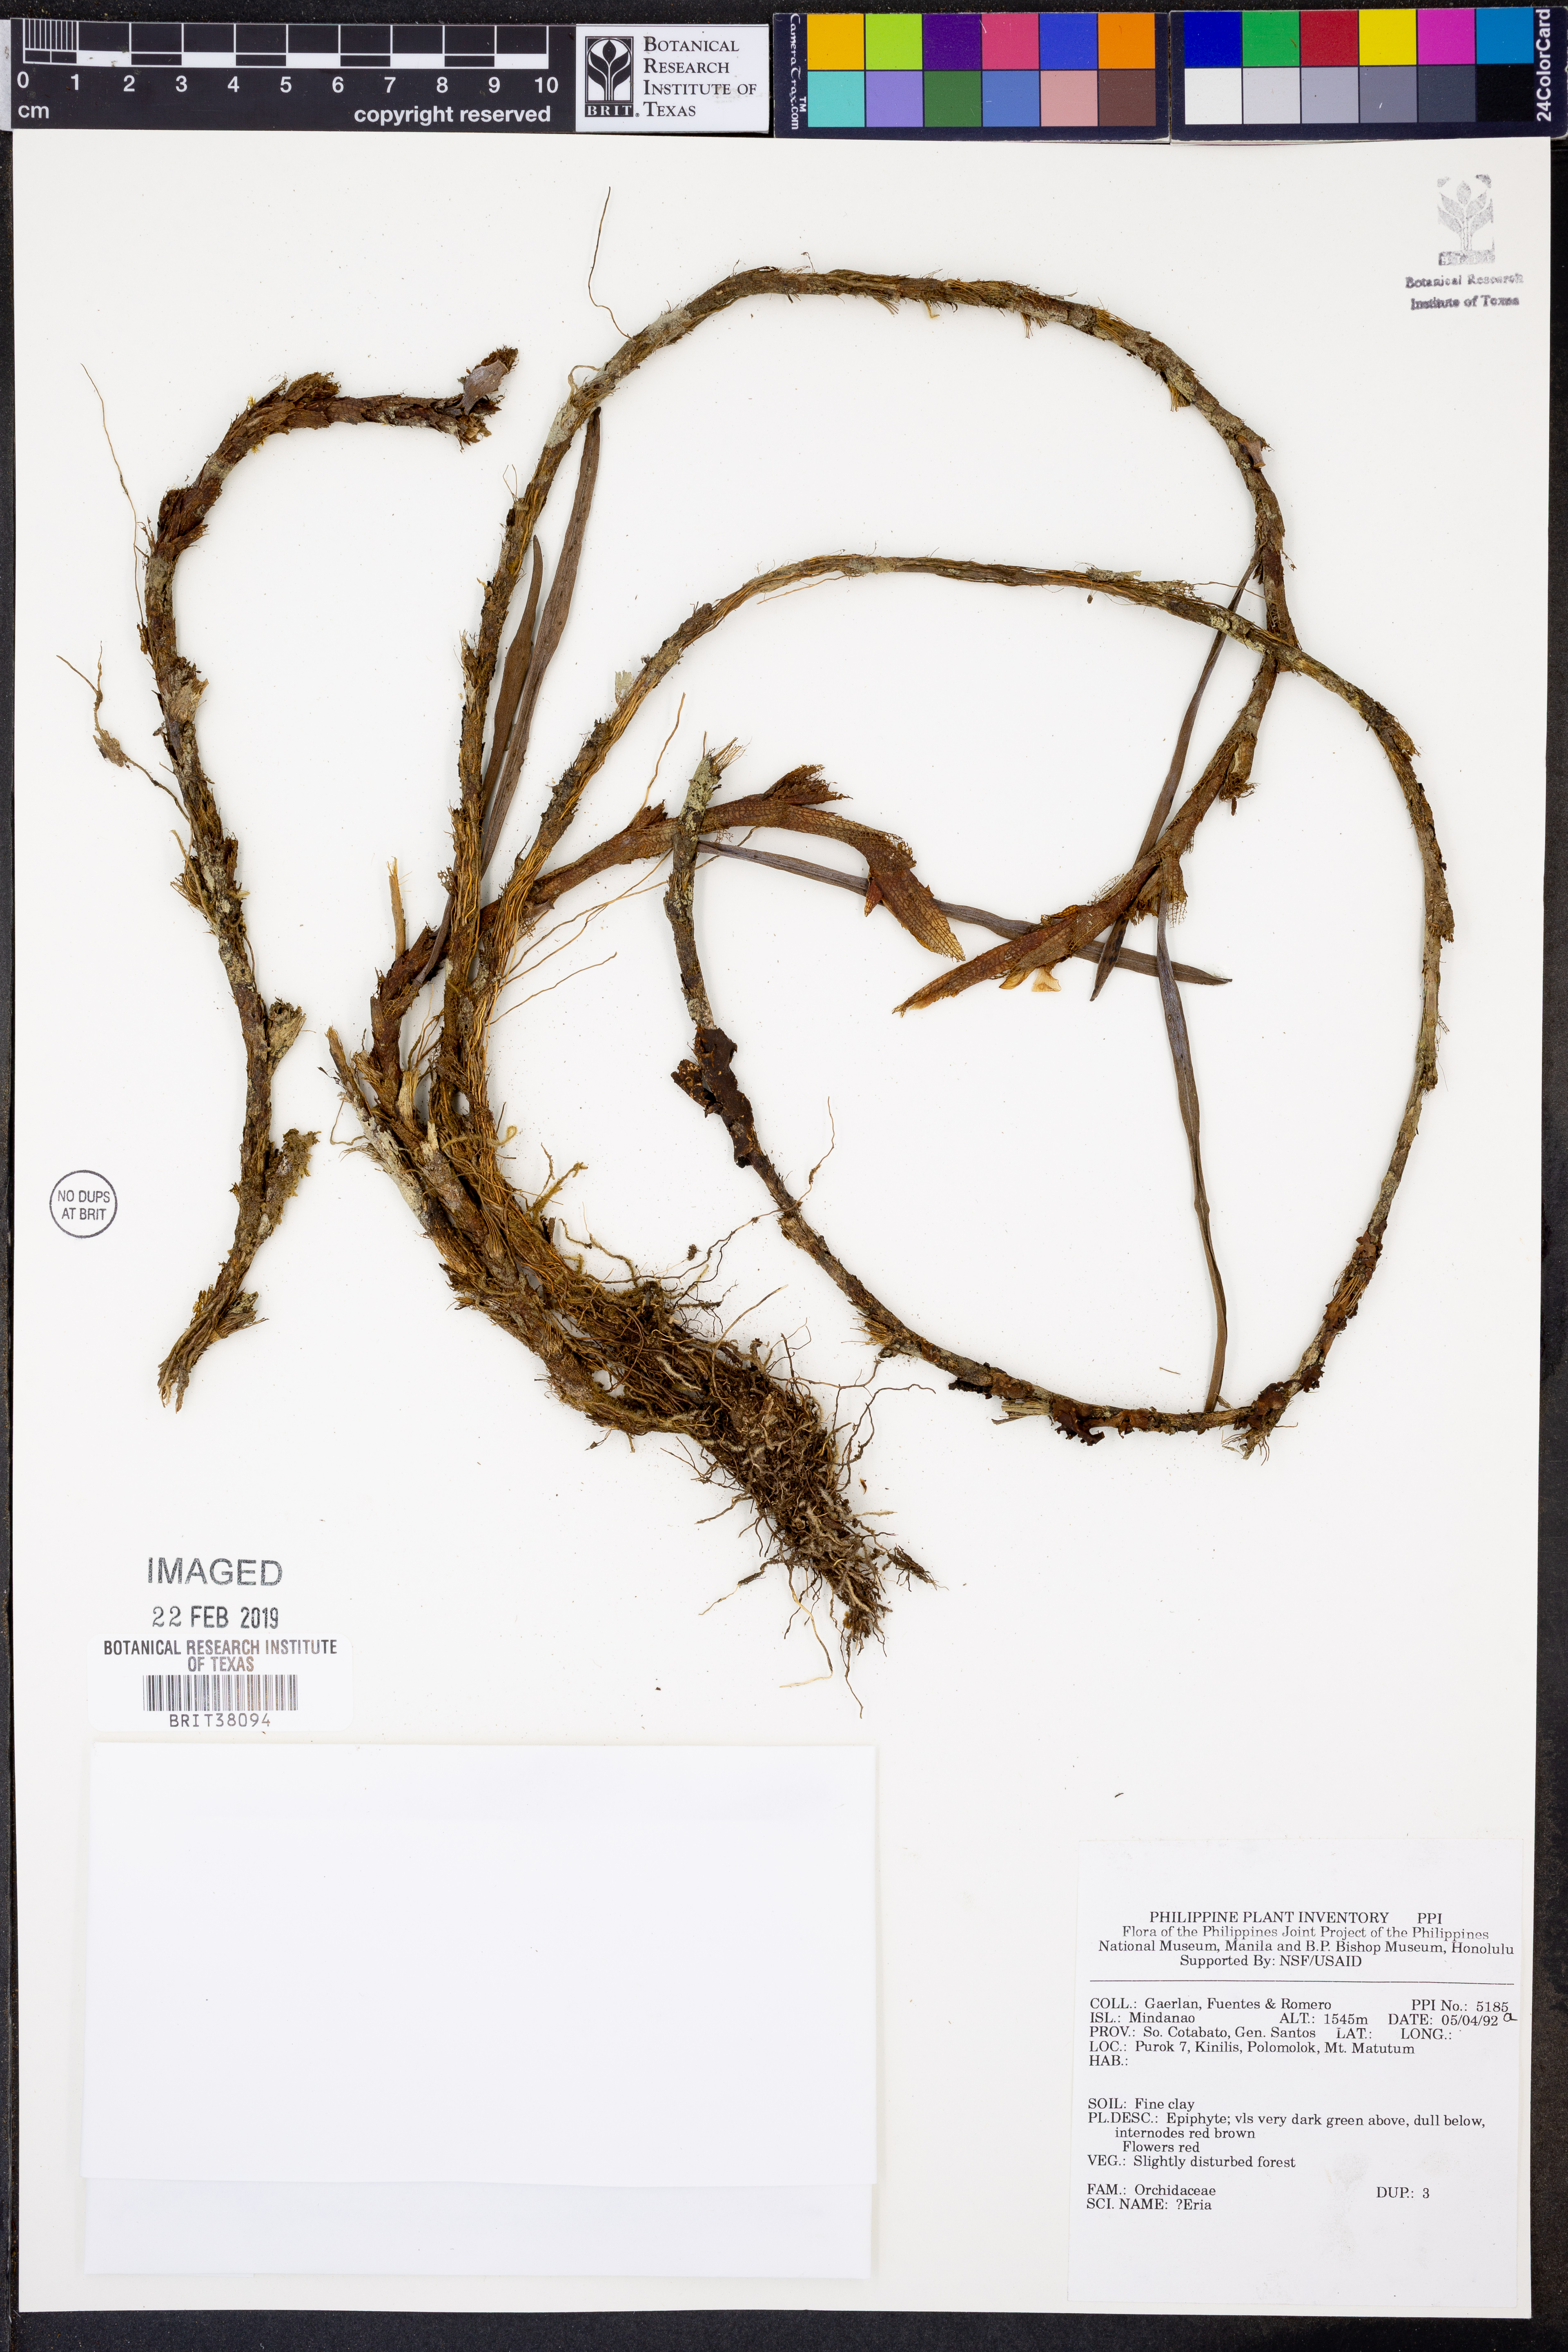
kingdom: Plantae
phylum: Tracheophyta
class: Liliopsida
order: Asparagales
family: Orchidaceae
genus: Eria
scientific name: Eria
